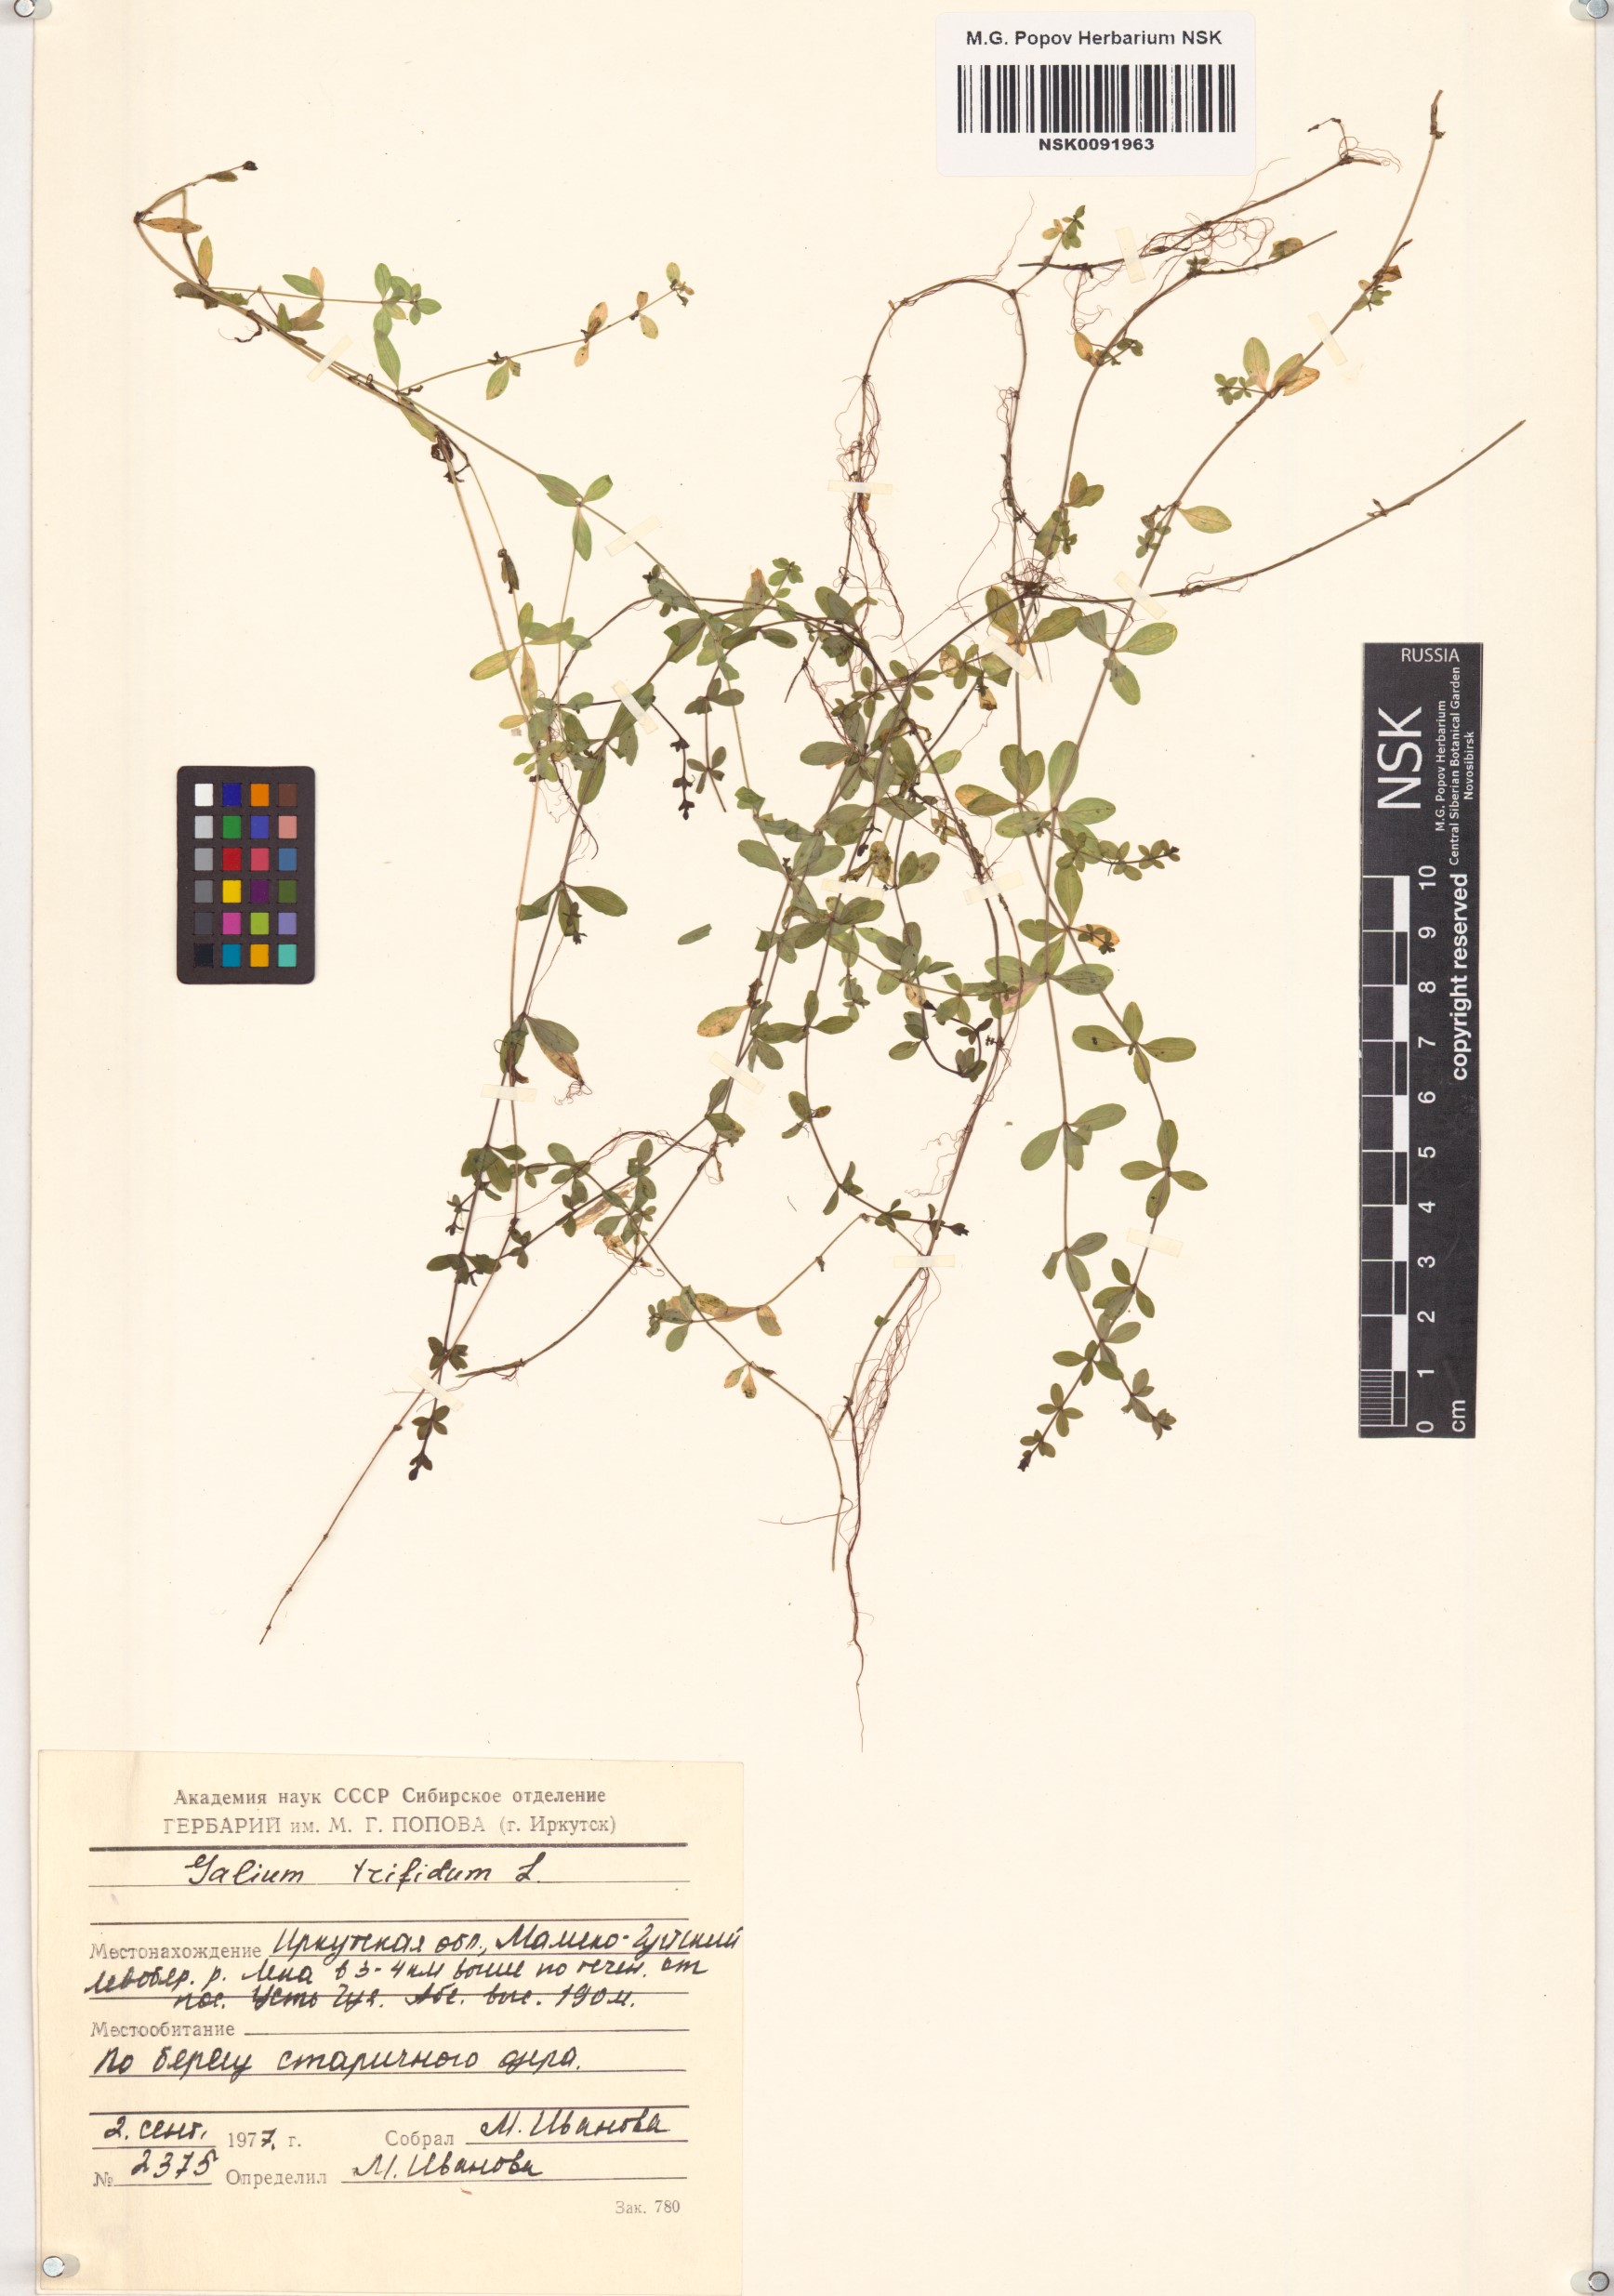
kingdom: Plantae
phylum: Tracheophyta
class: Magnoliopsida
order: Gentianales
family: Rubiaceae
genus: Galium
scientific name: Galium trifidum
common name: Small bedstraw
